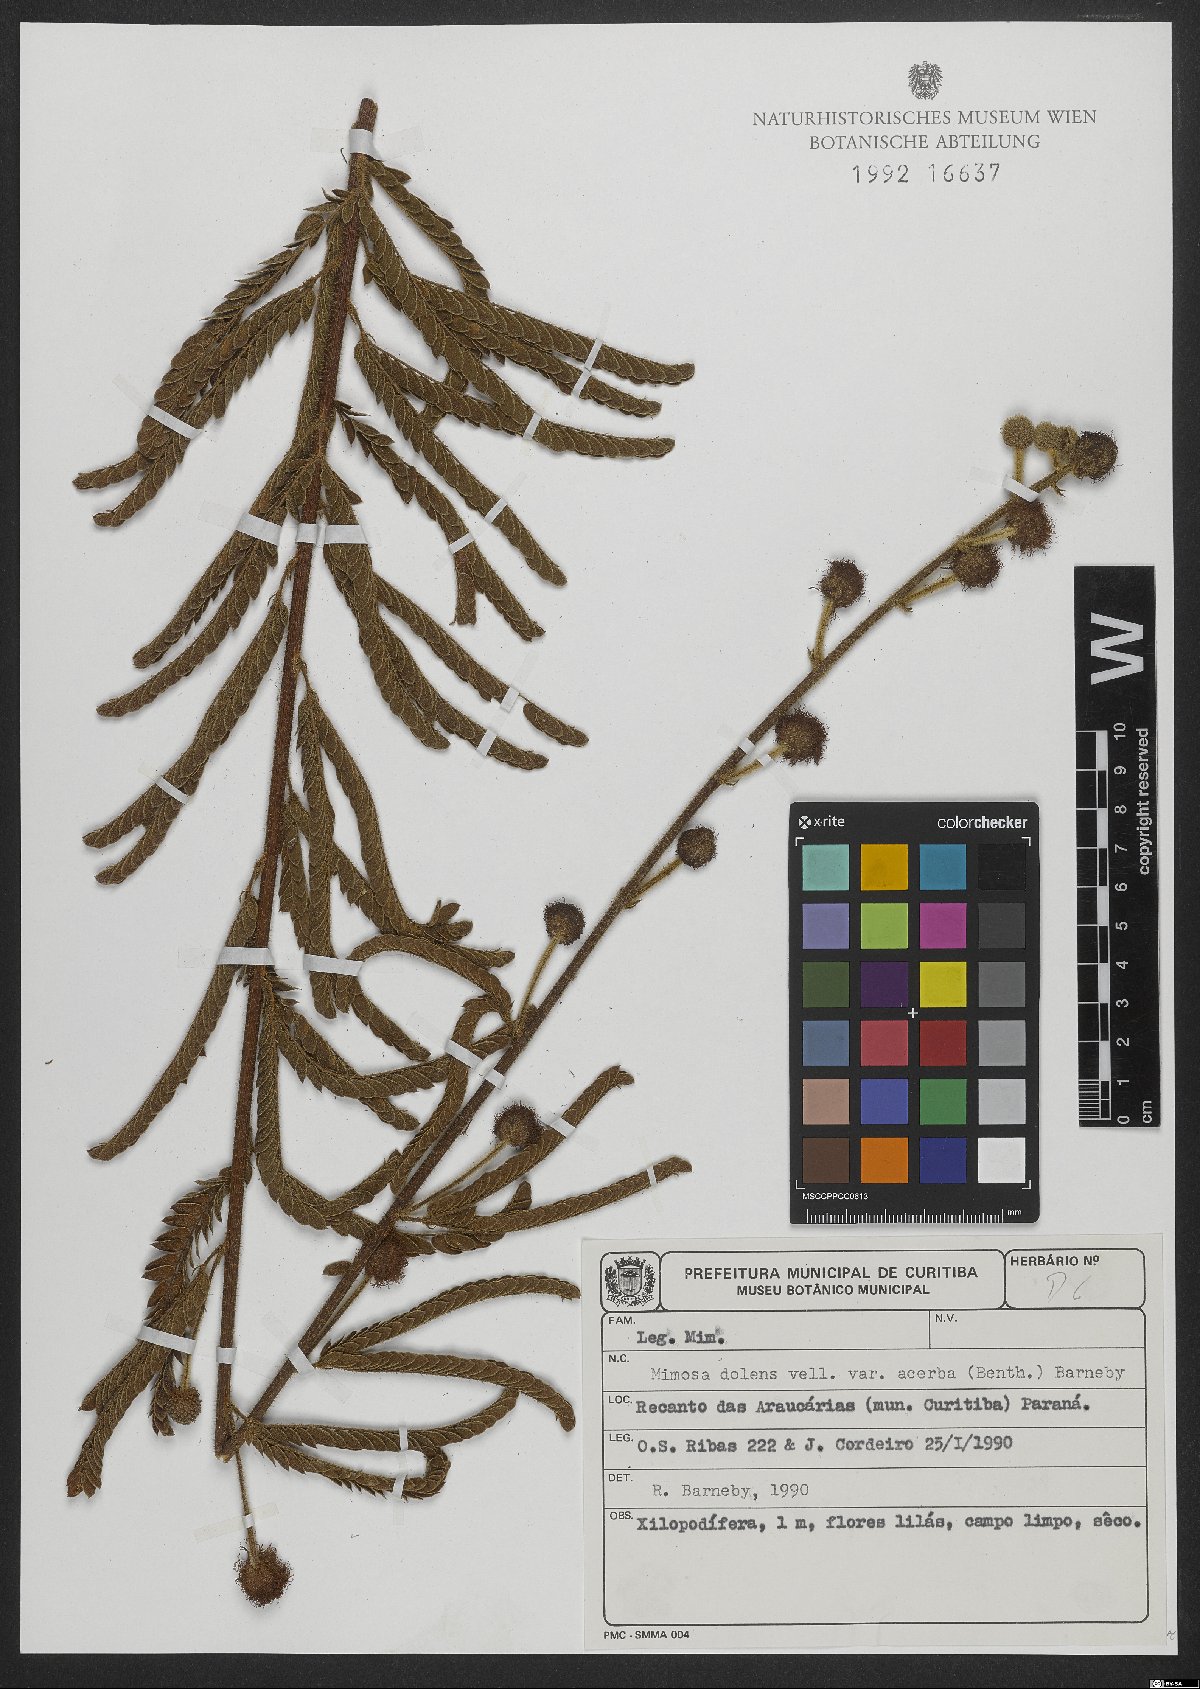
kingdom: Plantae
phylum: Tracheophyta
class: Magnoliopsida
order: Fabales
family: Fabaceae
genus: Mimosa
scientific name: Mimosa dolens
